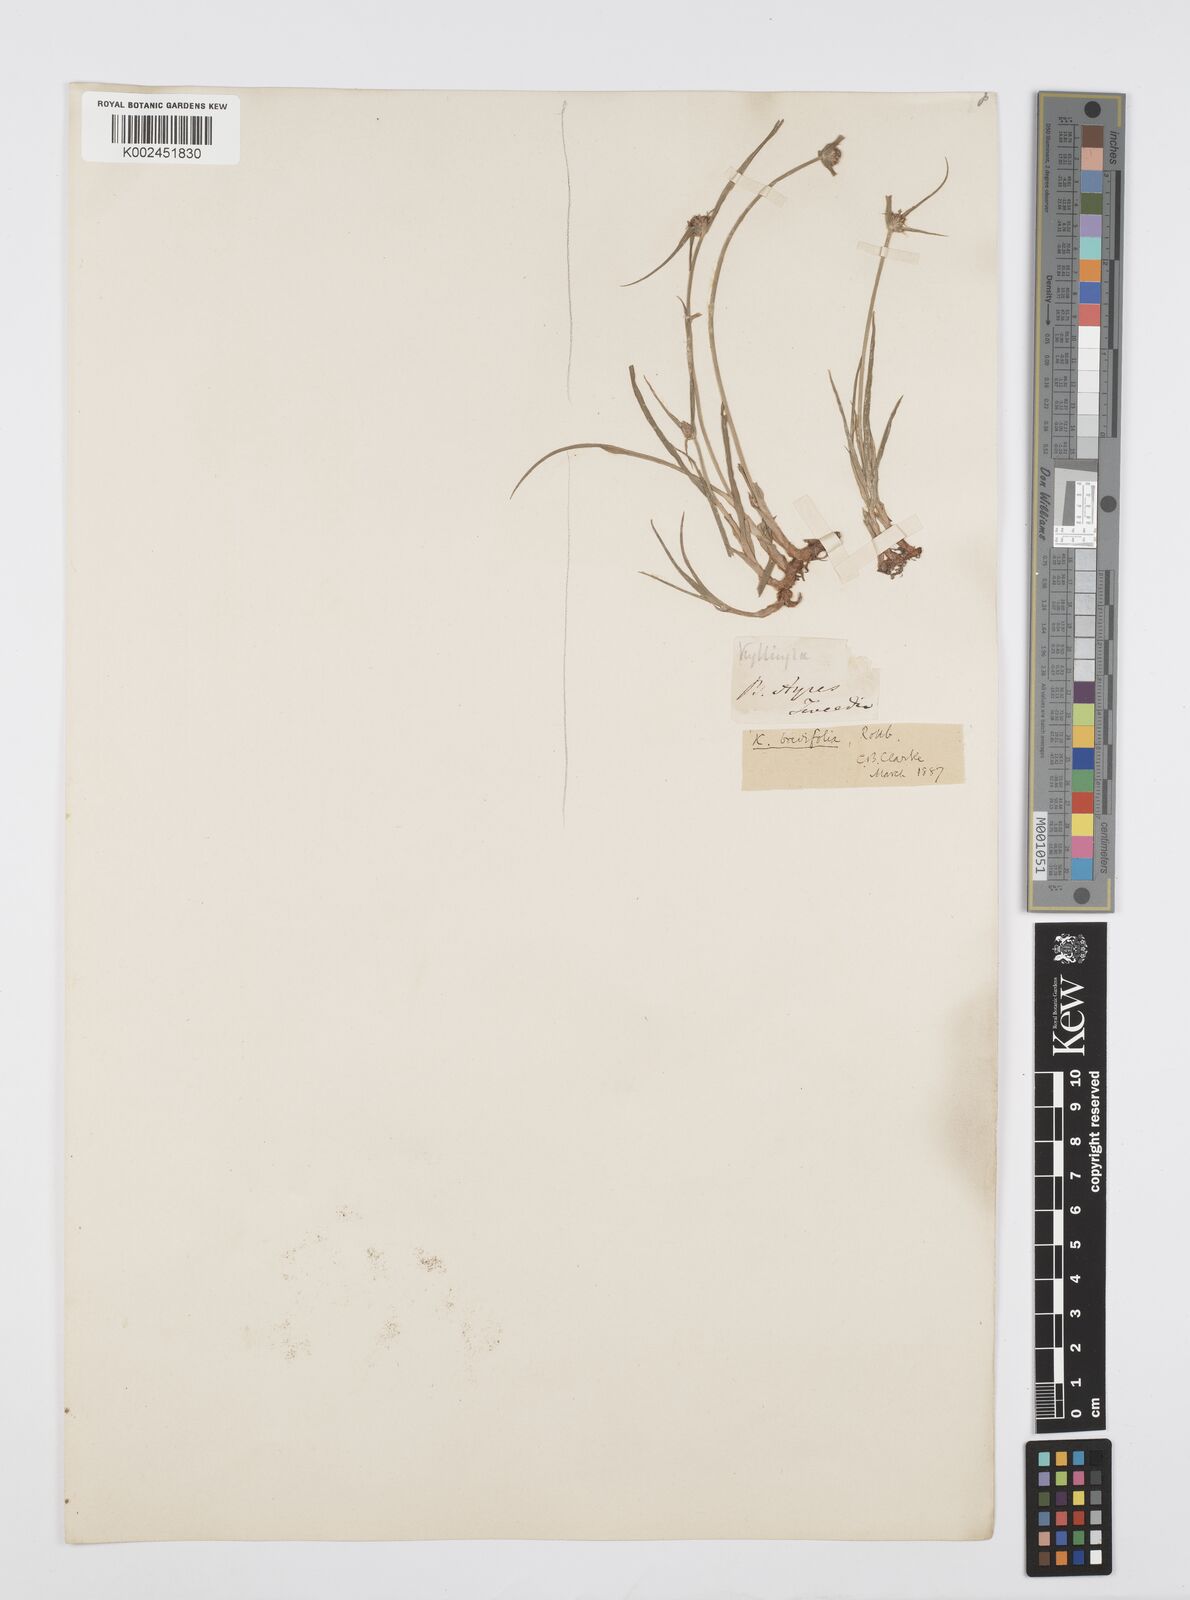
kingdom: Plantae
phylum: Tracheophyta
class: Liliopsida
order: Poales
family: Cyperaceae
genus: Cyperus
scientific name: Cyperus brevifolius
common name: Globe kyllinga
